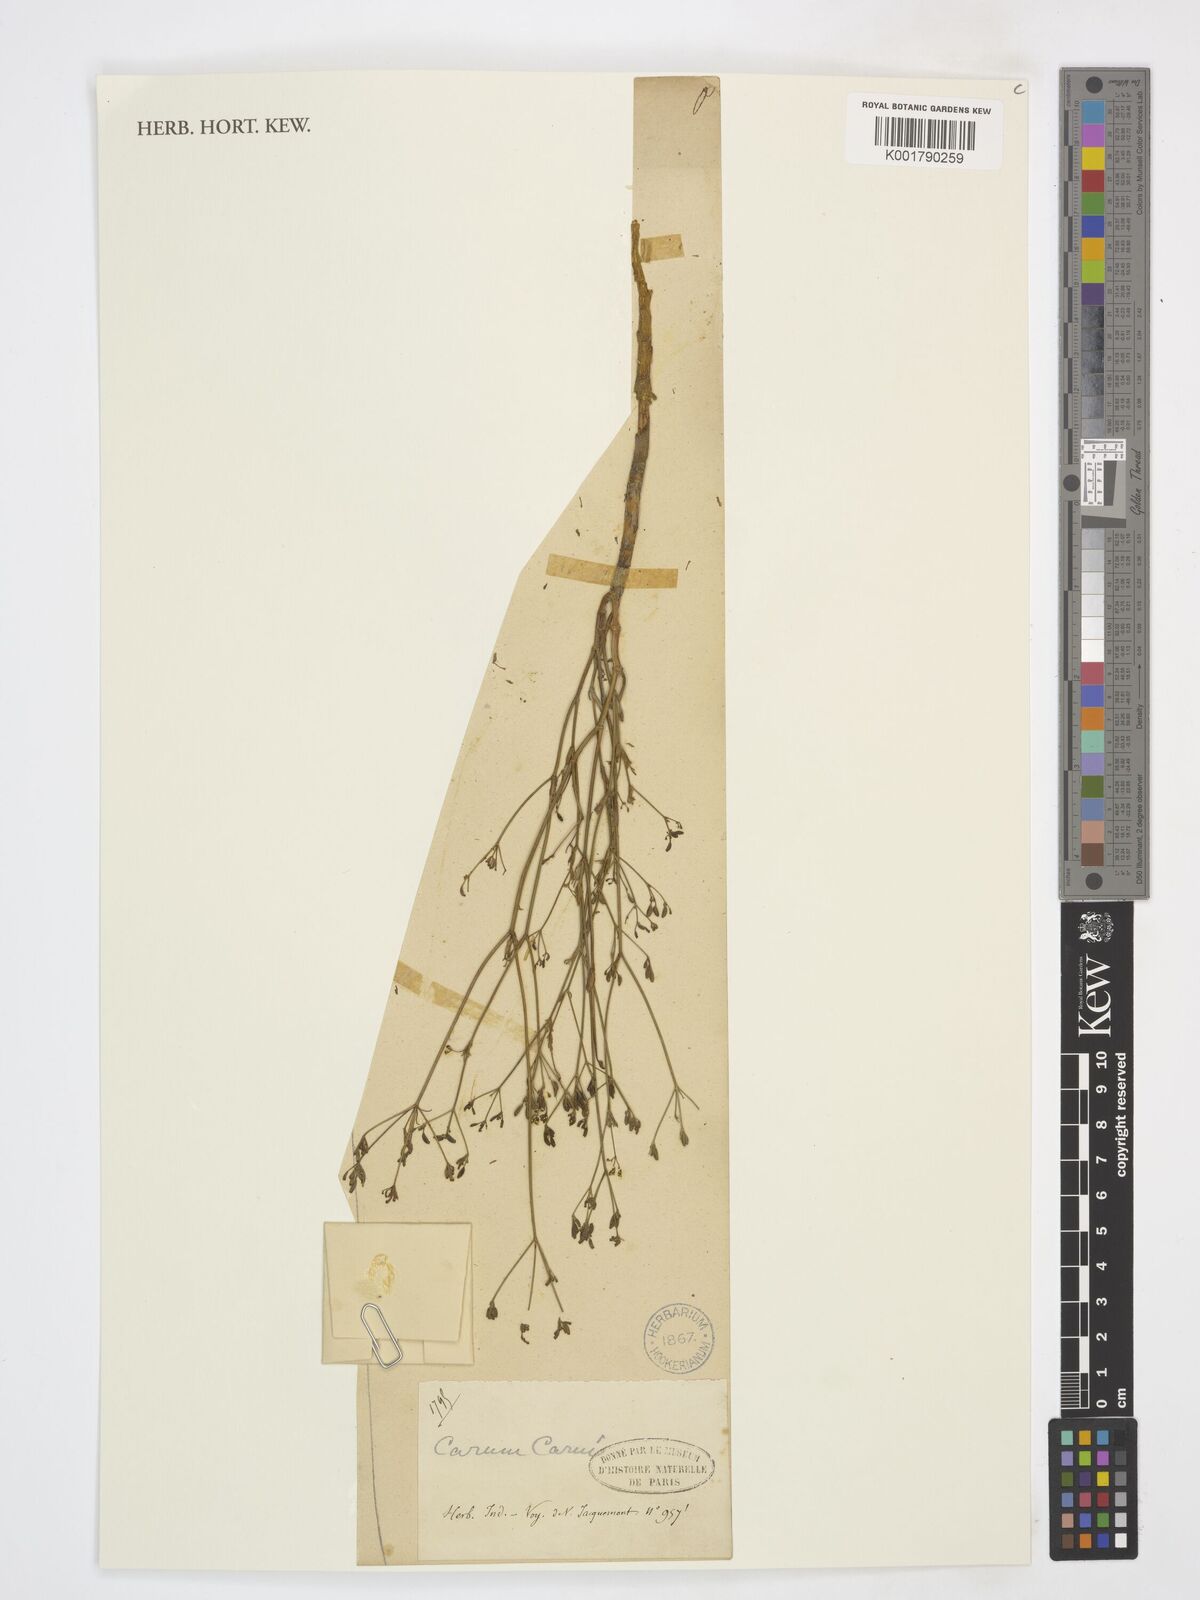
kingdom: Plantae
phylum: Tracheophyta
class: Magnoliopsida
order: Apiales
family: Apiaceae
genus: Carum
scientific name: Carum carvi
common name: Caraway
